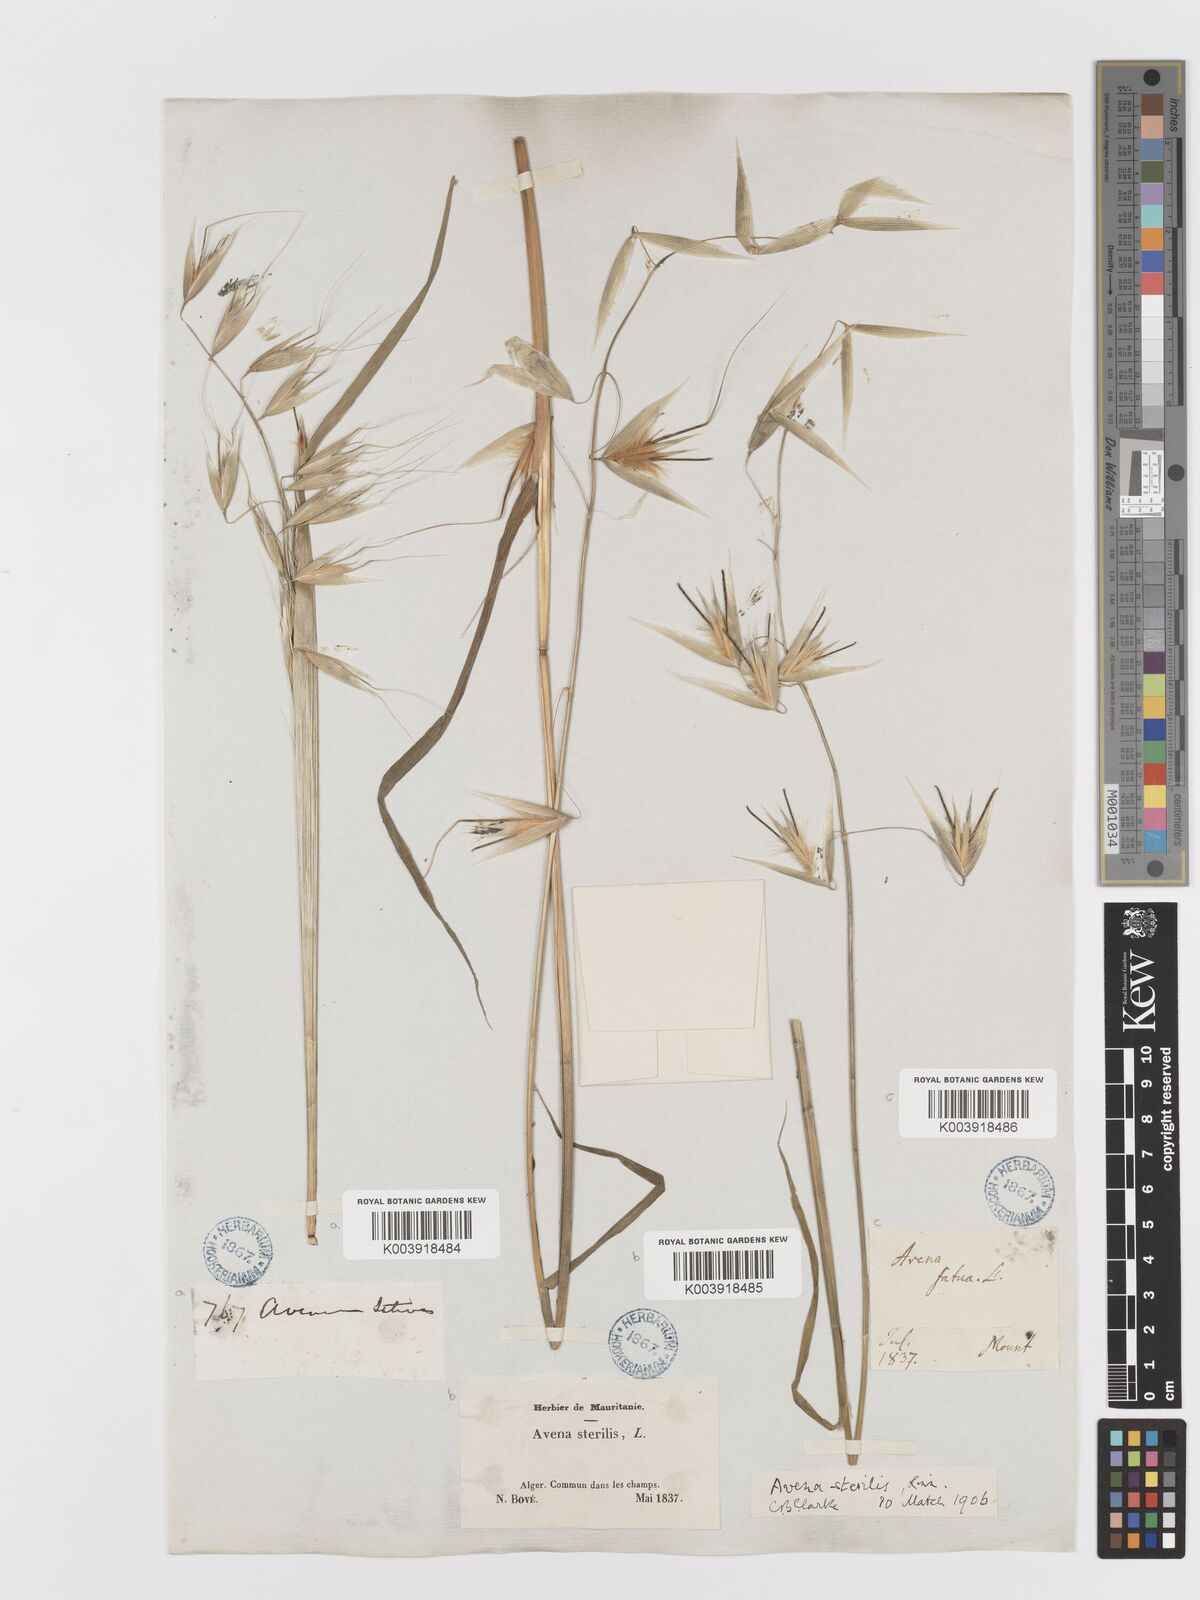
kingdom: Plantae
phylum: Tracheophyta
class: Liliopsida
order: Poales
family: Poaceae
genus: Avena
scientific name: Avena sterilis
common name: Animated oat
